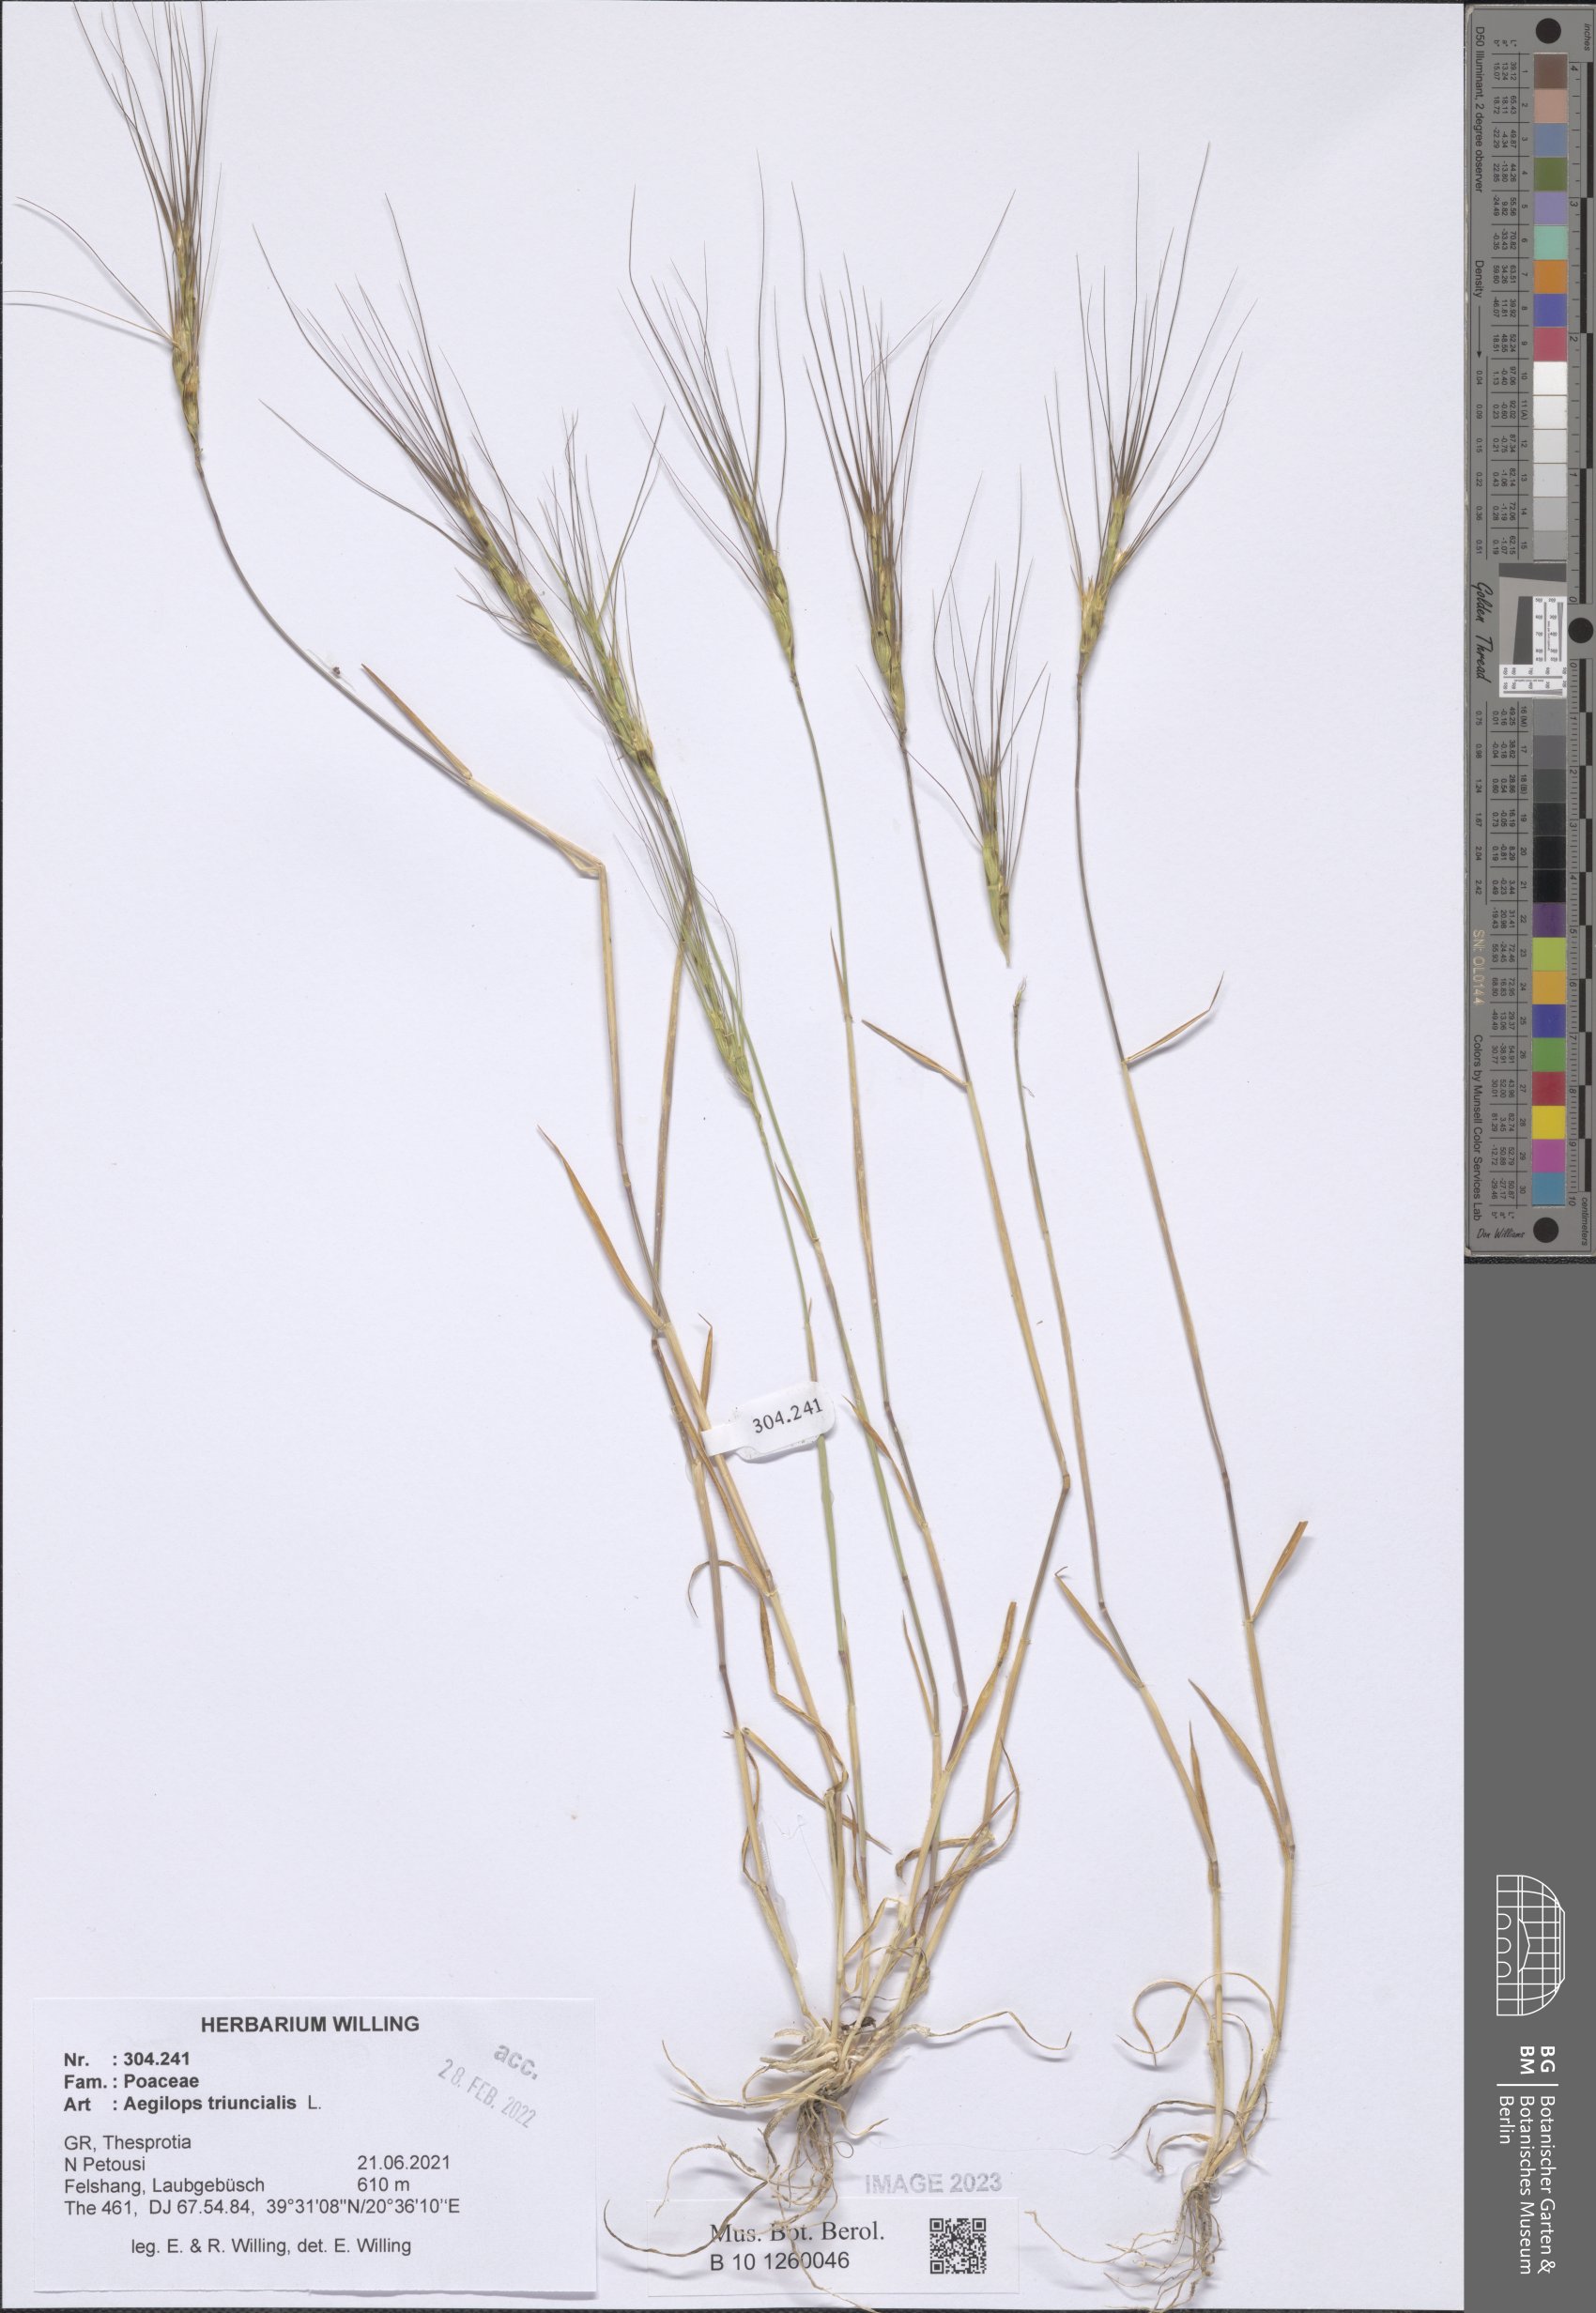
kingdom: Plantae
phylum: Tracheophyta
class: Liliopsida
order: Poales
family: Poaceae
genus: Aegilops
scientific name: Aegilops triuncialis
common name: Barb goat grass
